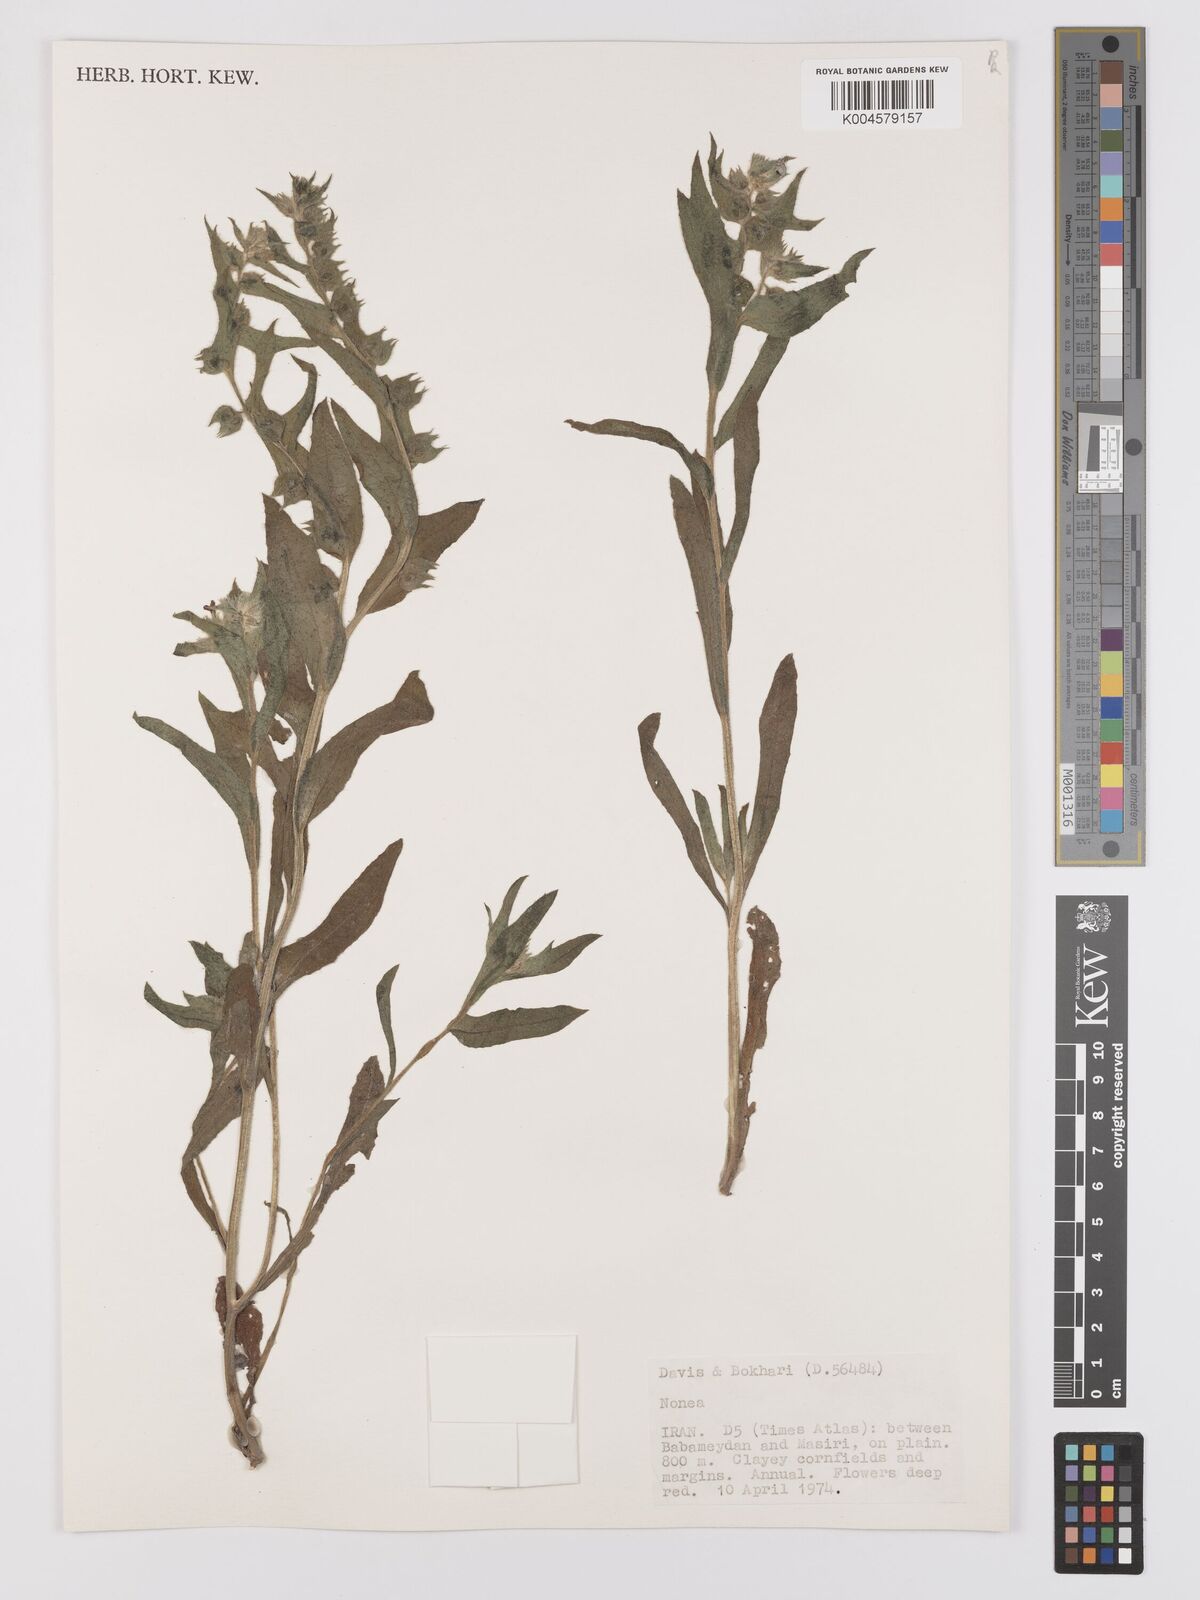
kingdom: Plantae
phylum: Tracheophyta
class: Magnoliopsida
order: Boraginales
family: Boraginaceae
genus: Nonea
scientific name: Nonea
